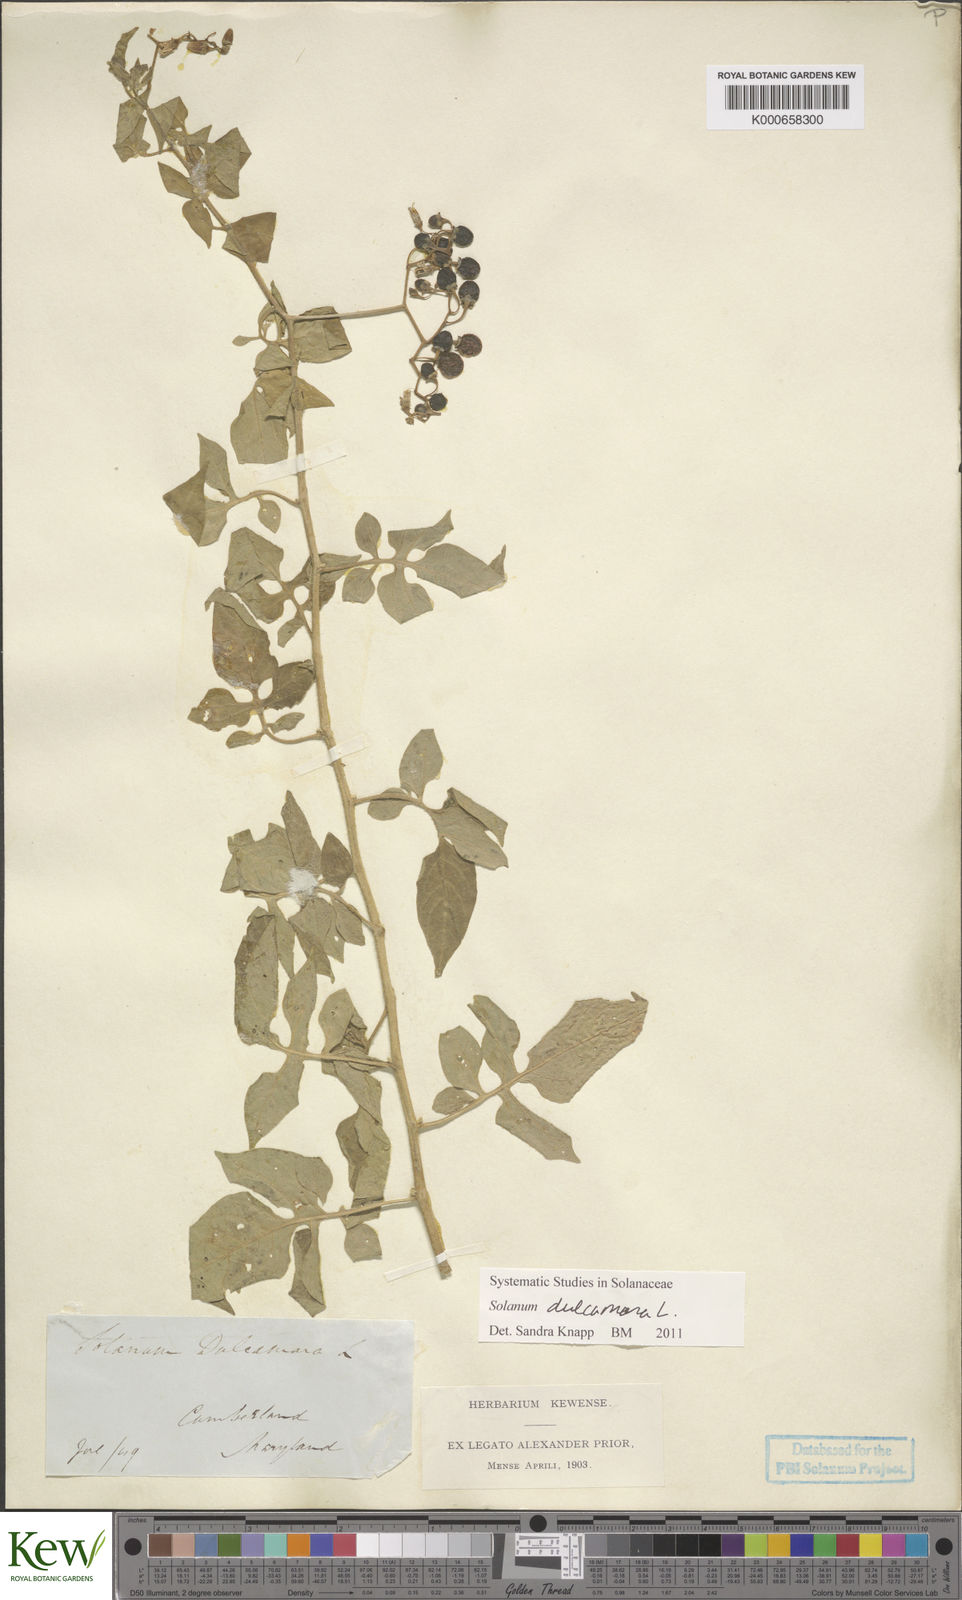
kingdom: Plantae
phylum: Tracheophyta
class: Magnoliopsida
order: Solanales
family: Solanaceae
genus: Solanum
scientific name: Solanum dulcamara
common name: Climbing nightshade
